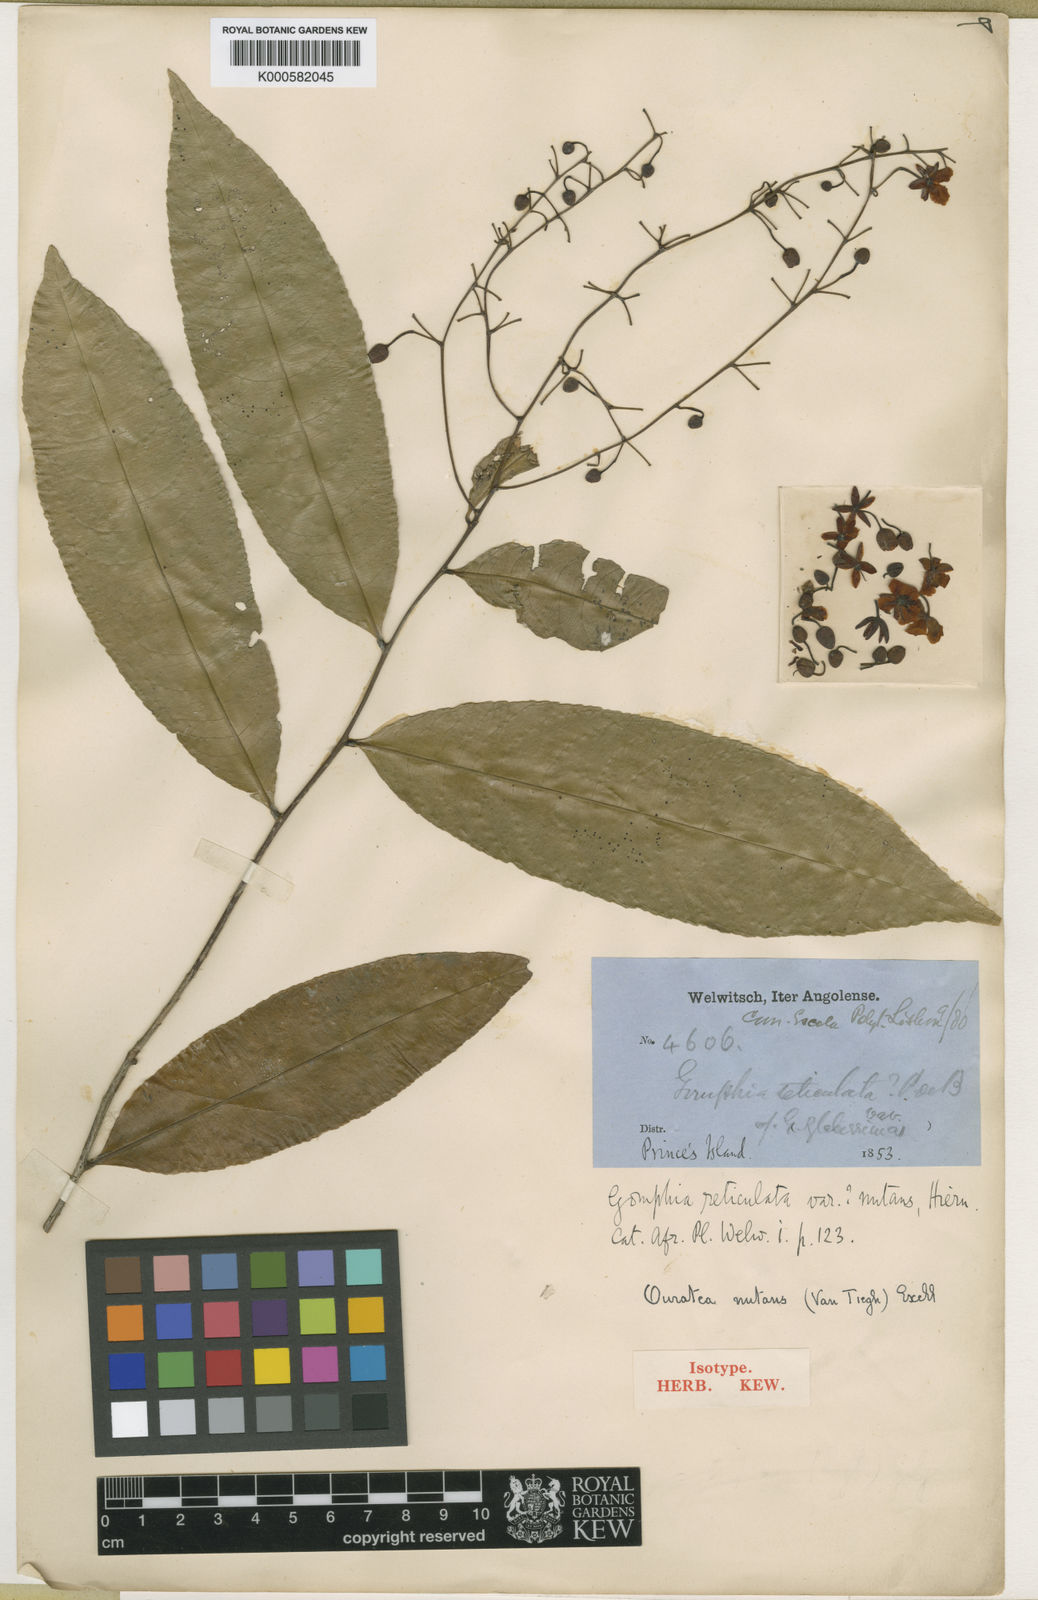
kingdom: Plantae
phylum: Tracheophyta
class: Magnoliopsida
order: Malpighiales
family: Ochnaceae
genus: Campylospermum
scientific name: Campylospermum nutans
